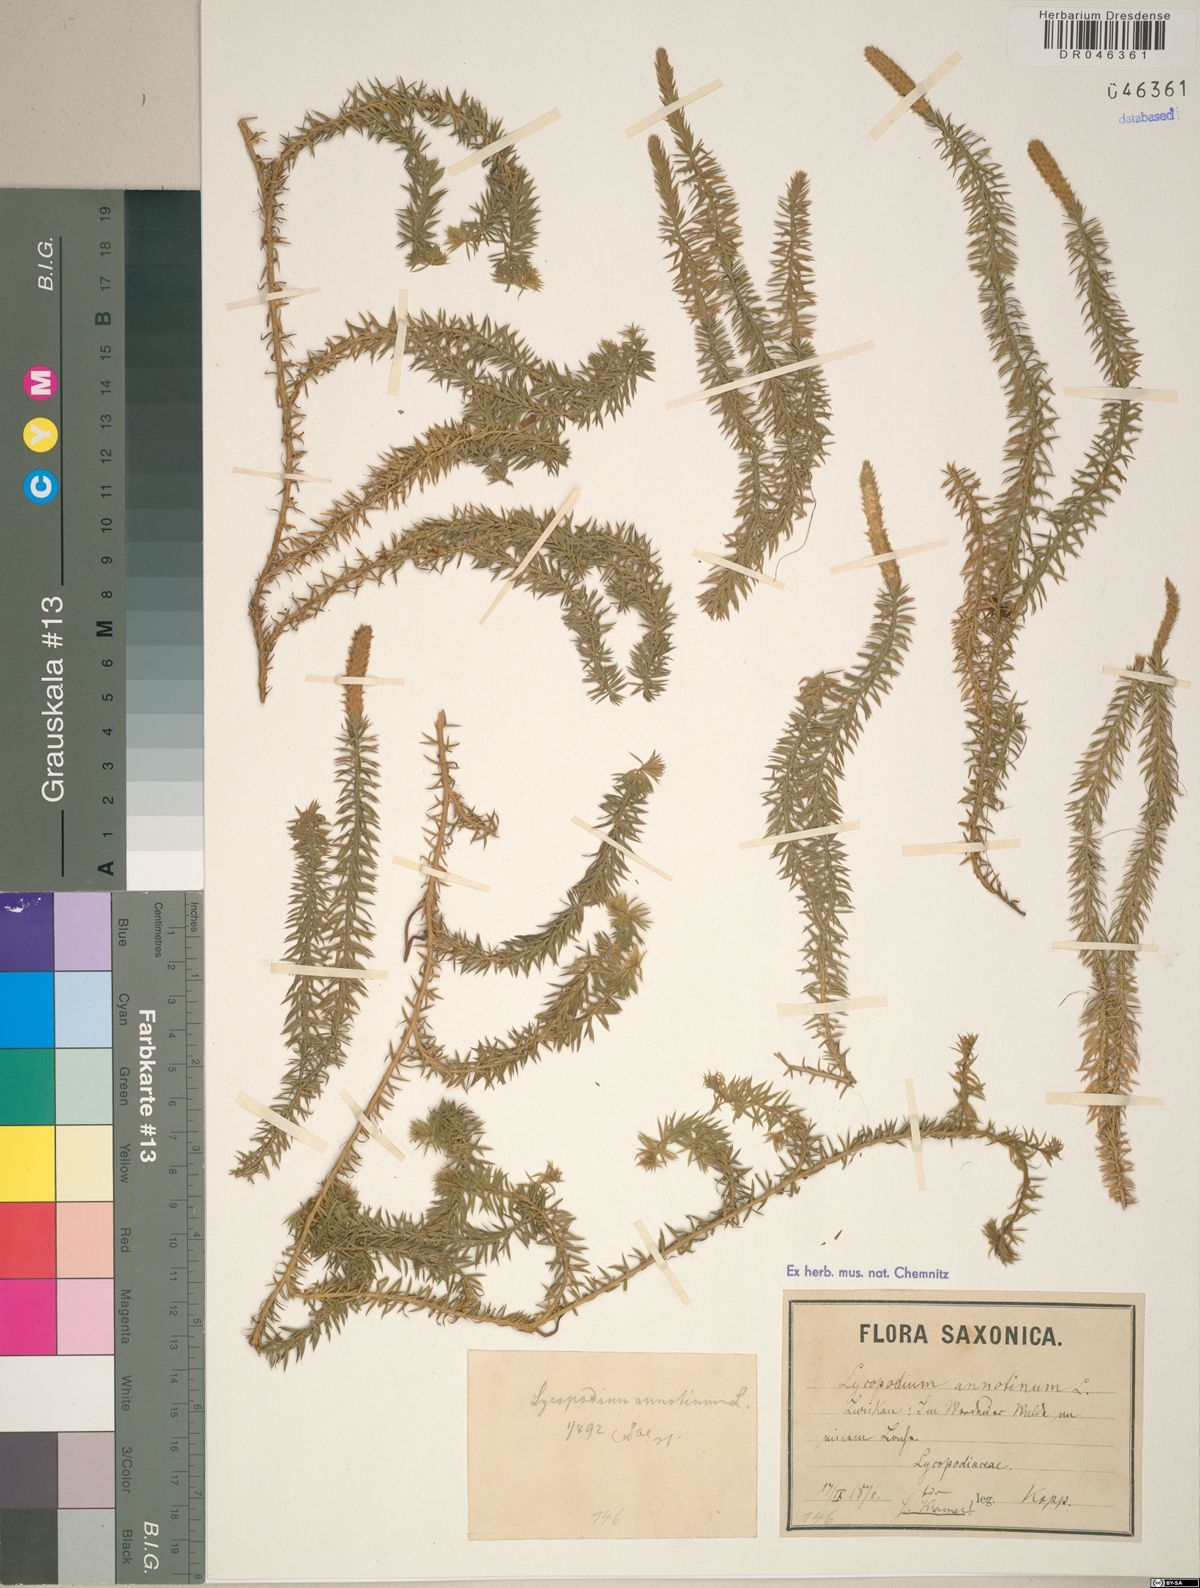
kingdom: Plantae
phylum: Tracheophyta
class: Lycopodiopsida
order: Lycopodiales
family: Lycopodiaceae
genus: Spinulum
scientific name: Spinulum annotinum
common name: Interrupted club-moss
